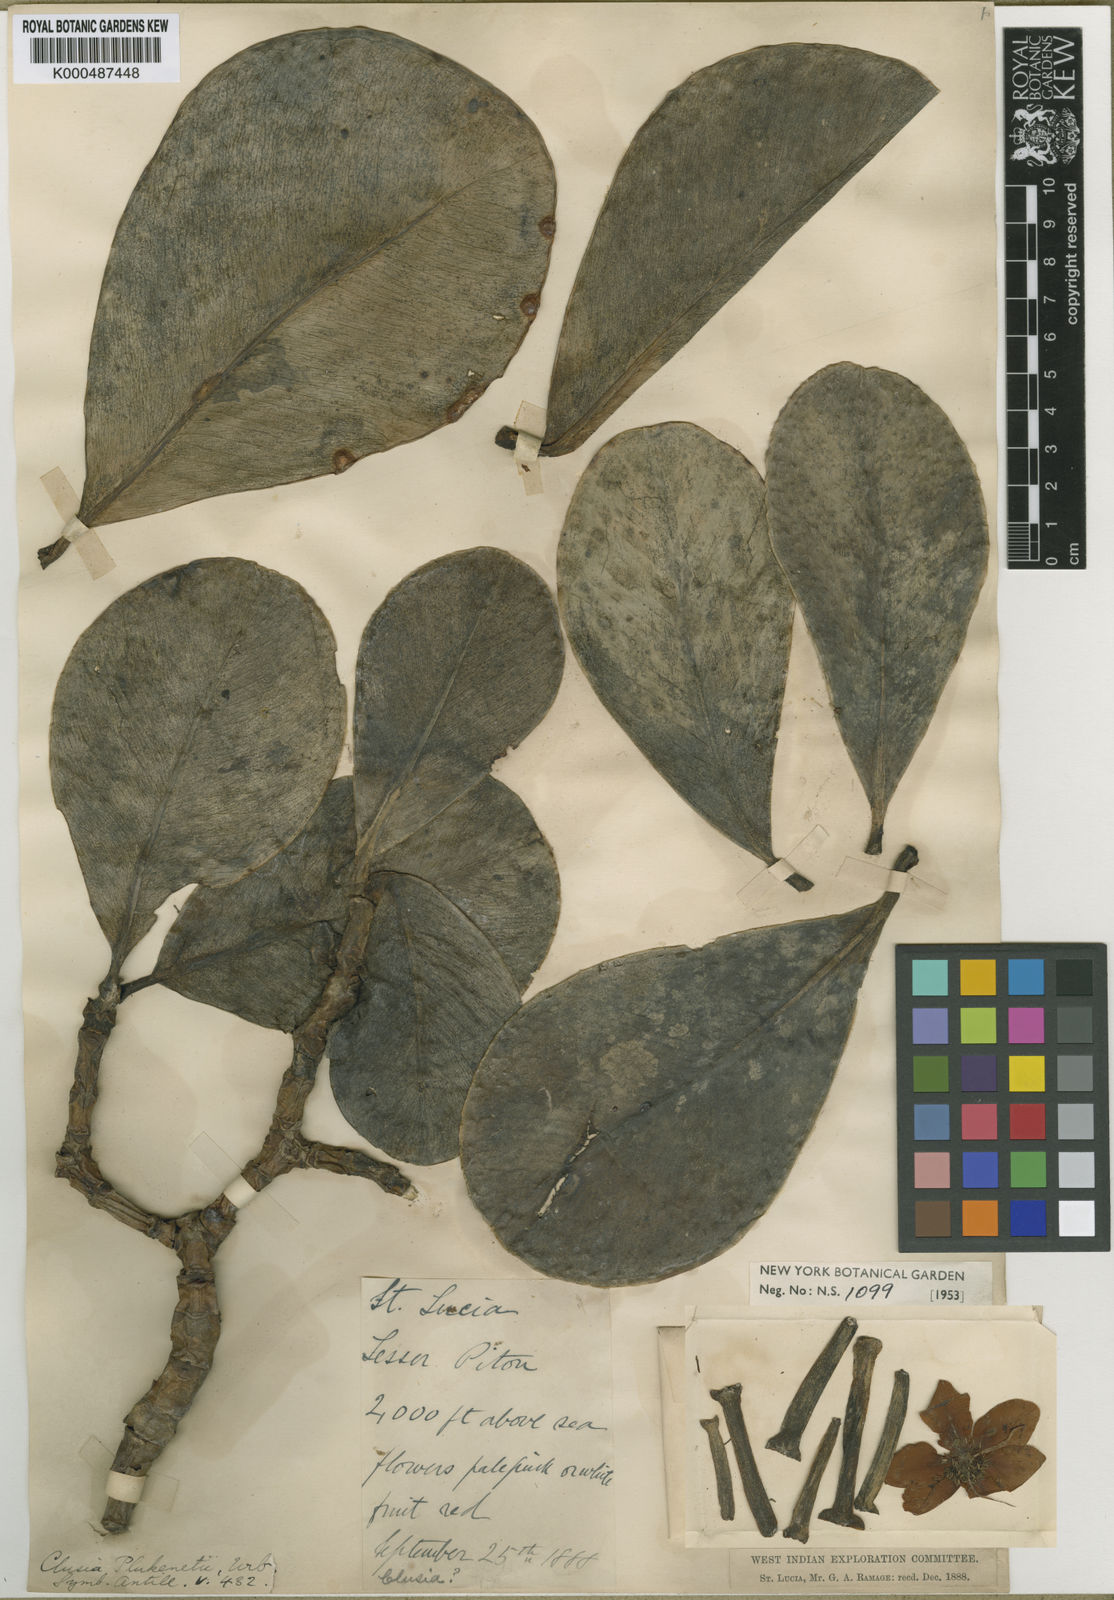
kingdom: Plantae
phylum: Tracheophyta
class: Magnoliopsida
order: Malpighiales
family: Clusiaceae
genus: Clusia
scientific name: Clusia plukenetii
